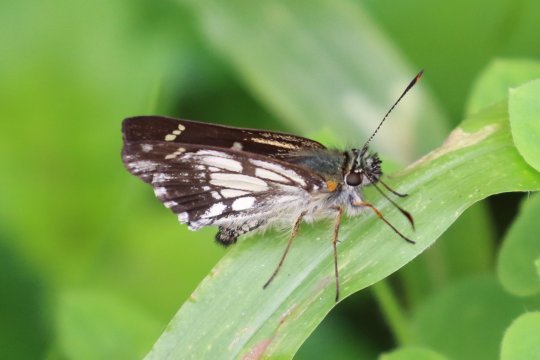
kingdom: Animalia
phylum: Arthropoda
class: Insecta
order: Lepidoptera
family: Hesperiidae
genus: Dalla
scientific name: Dalla caieus
